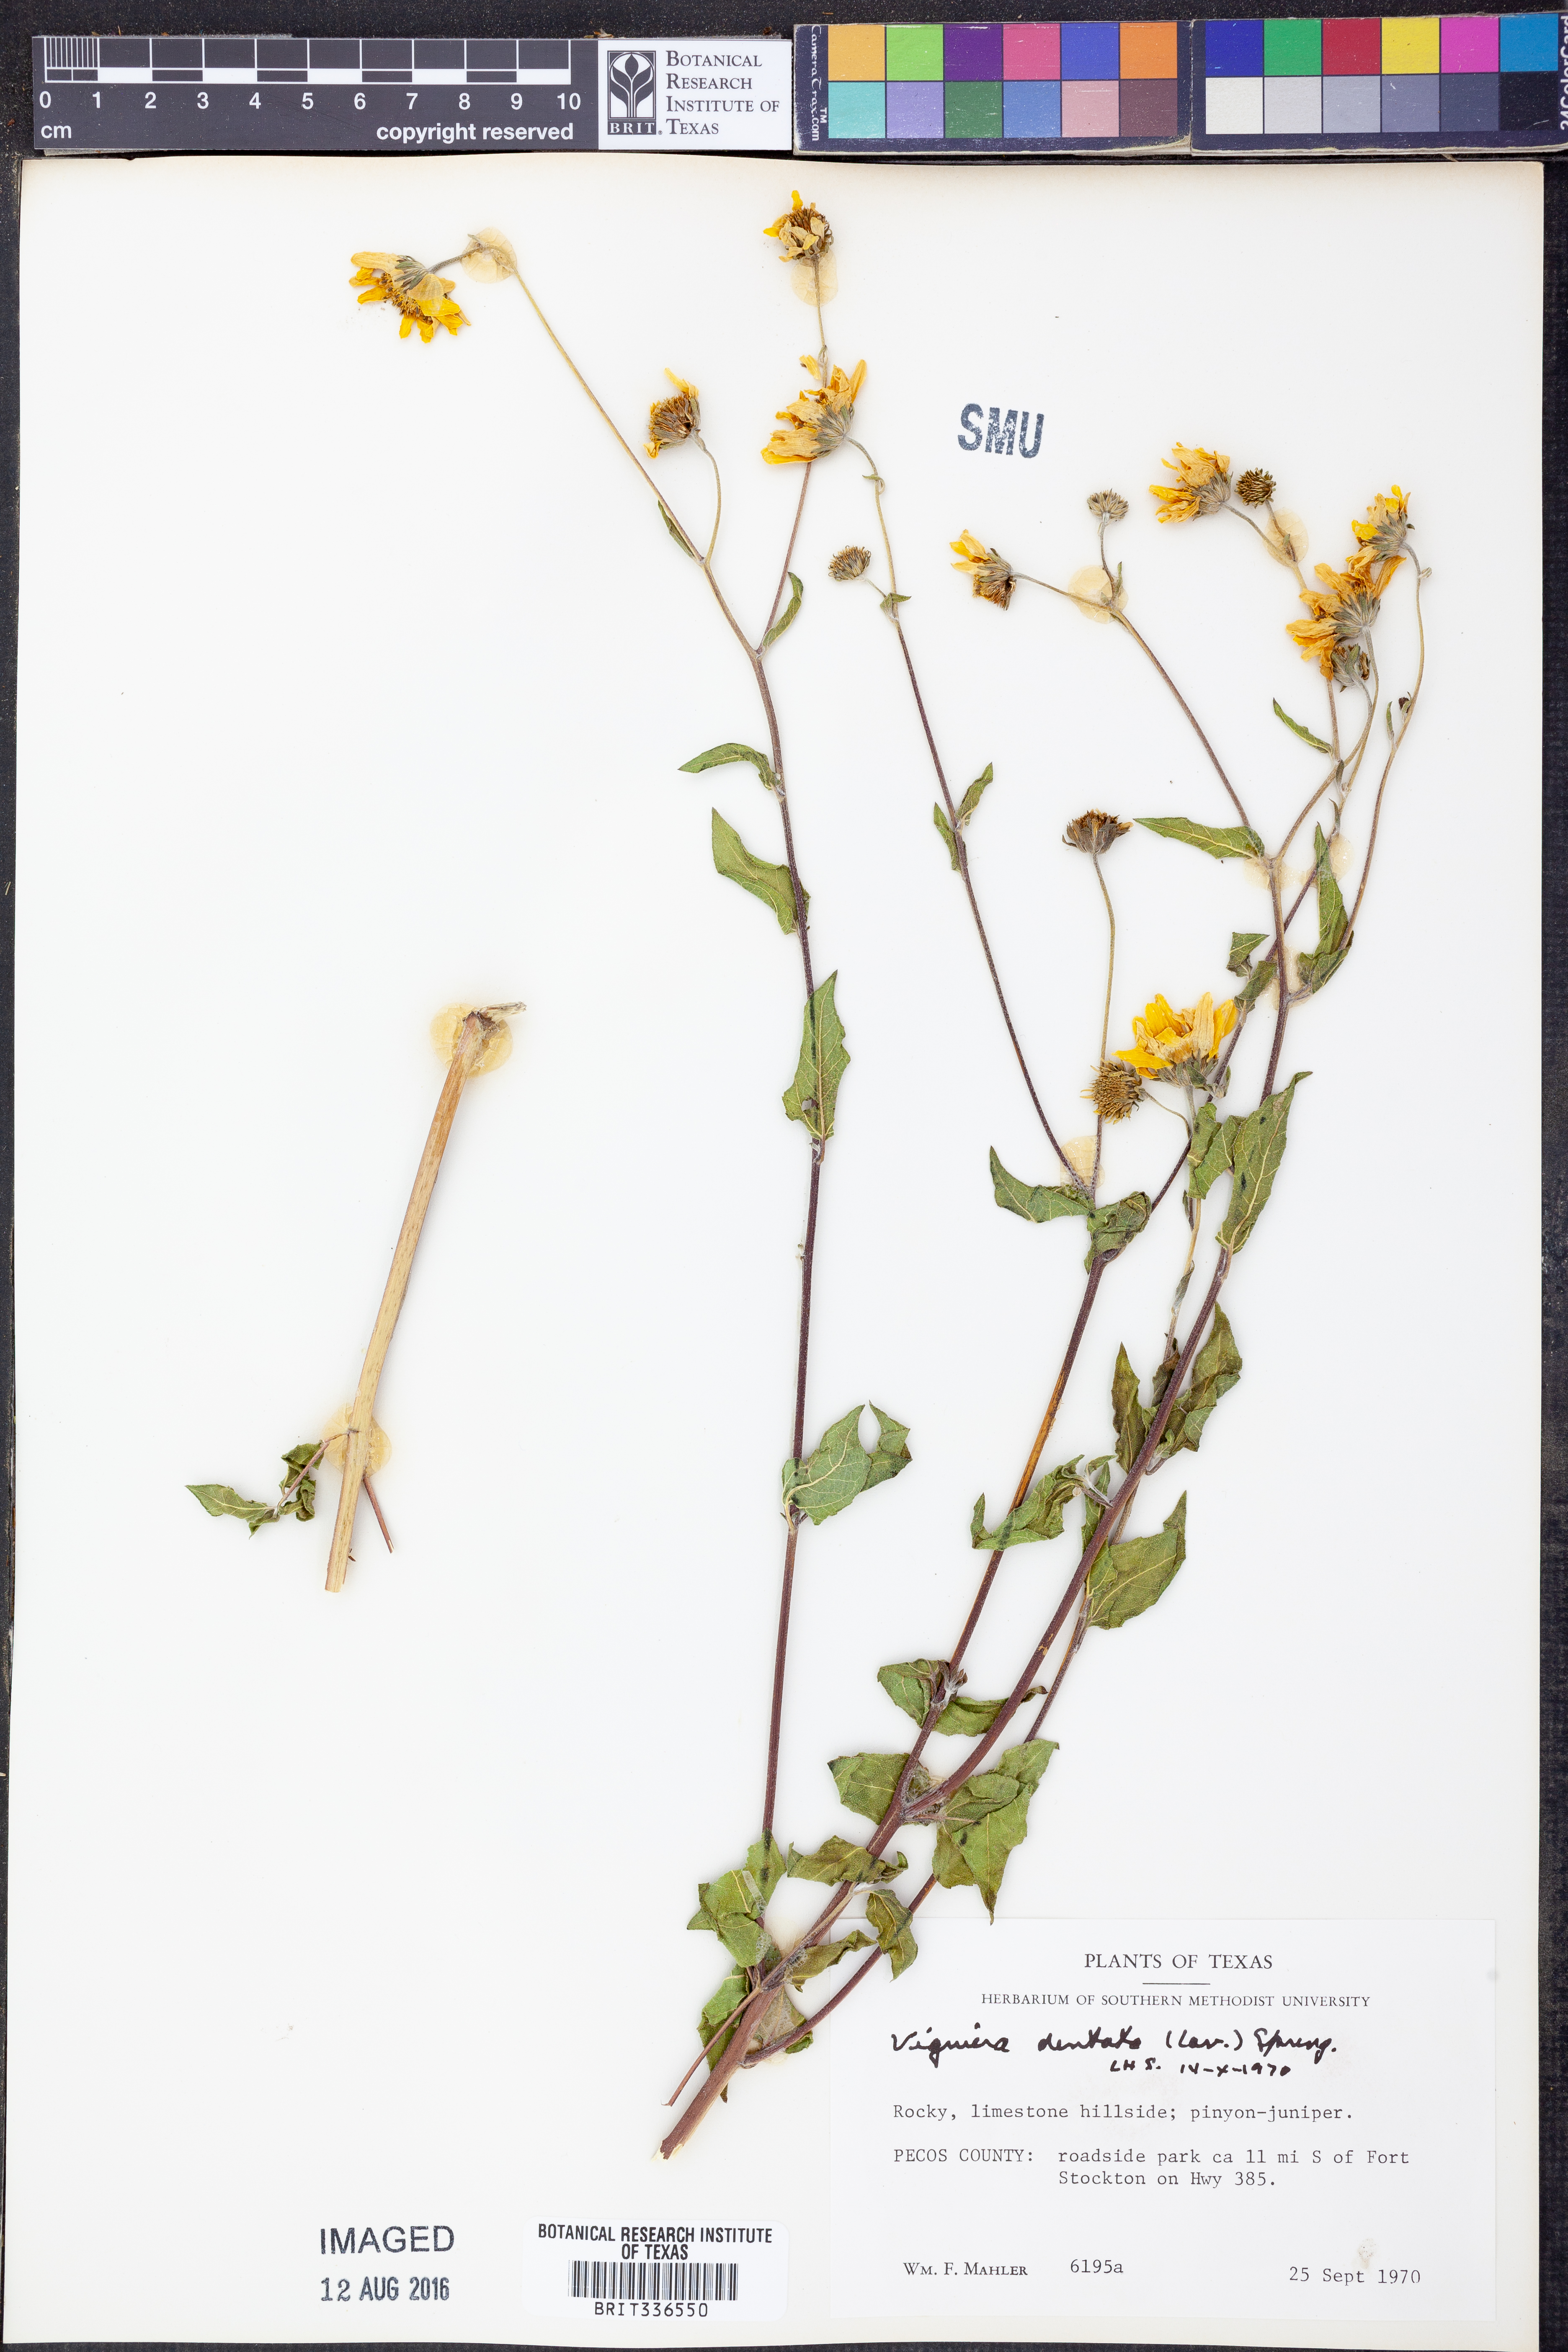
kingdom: Plantae
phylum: Tracheophyta
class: Magnoliopsida
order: Asterales
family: Asteraceae
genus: Viguiera
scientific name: Viguiera dentata
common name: Toothleaf
